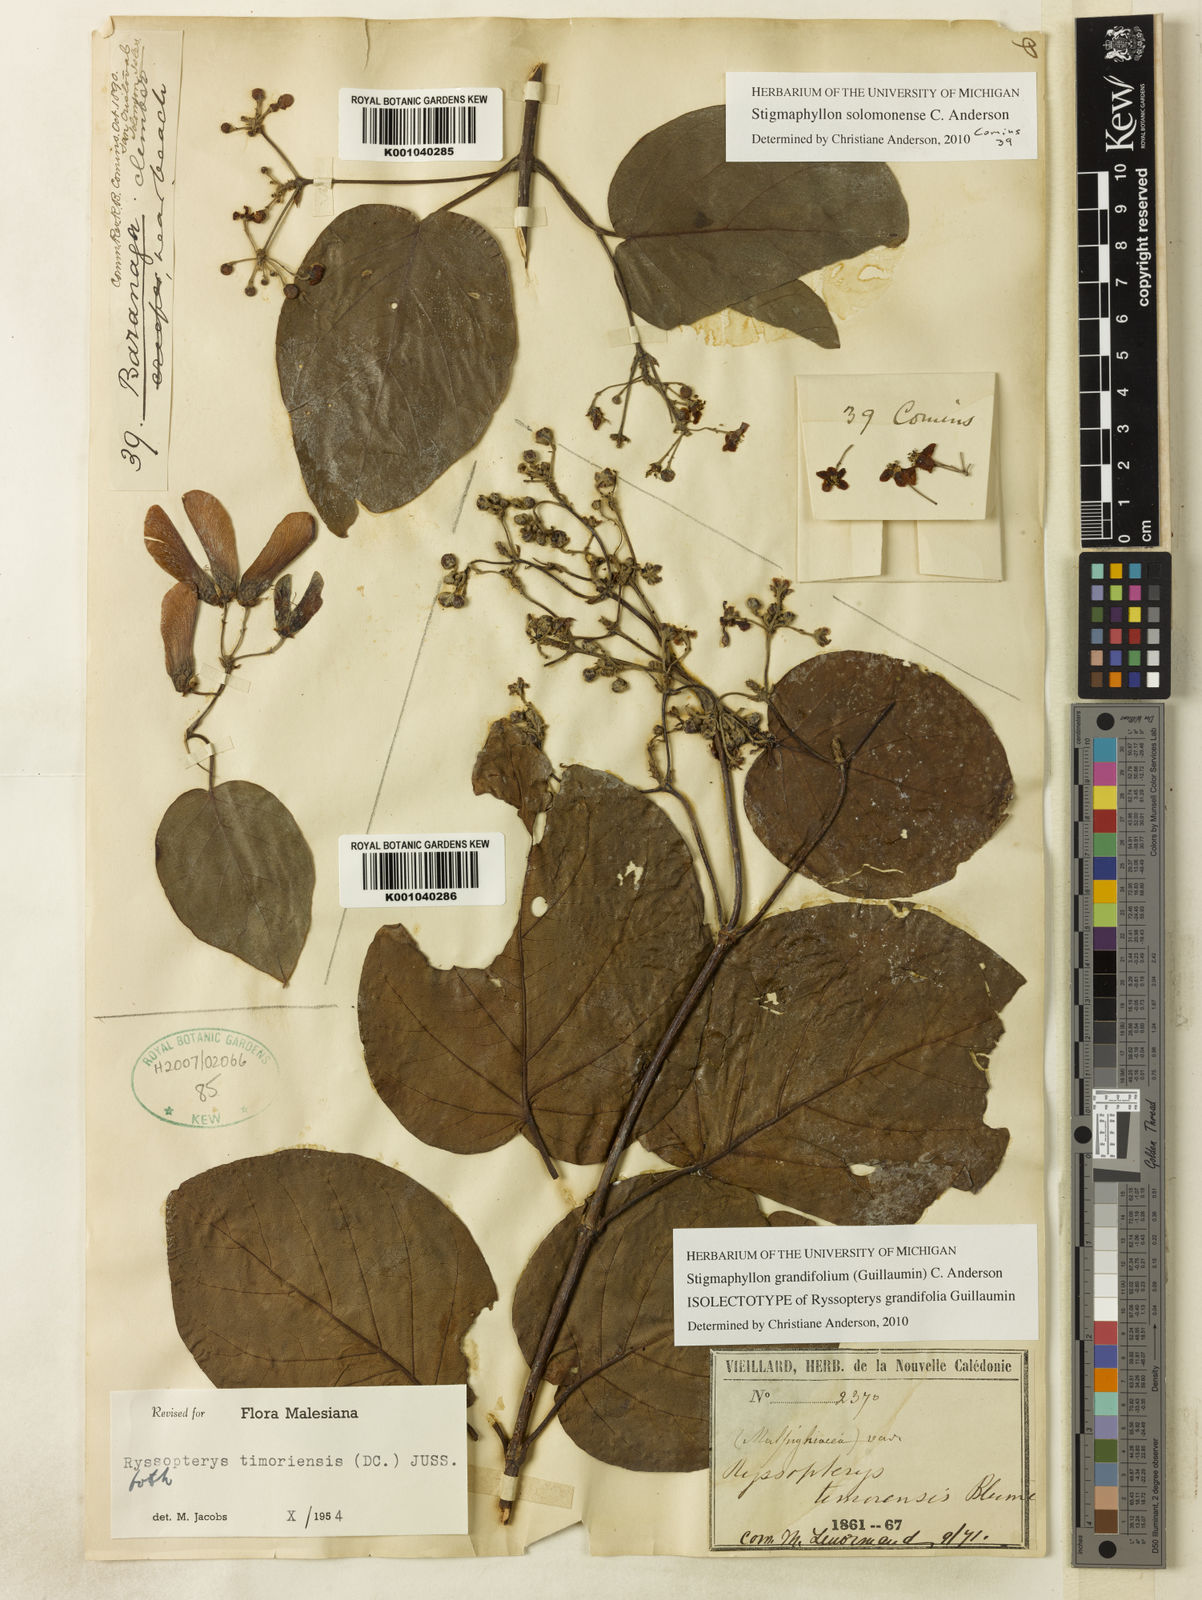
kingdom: Plantae
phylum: Tracheophyta
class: Magnoliopsida
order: Malpighiales
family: Malpighiaceae
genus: Stigmaphyllon
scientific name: Stigmaphyllon grandifolium
